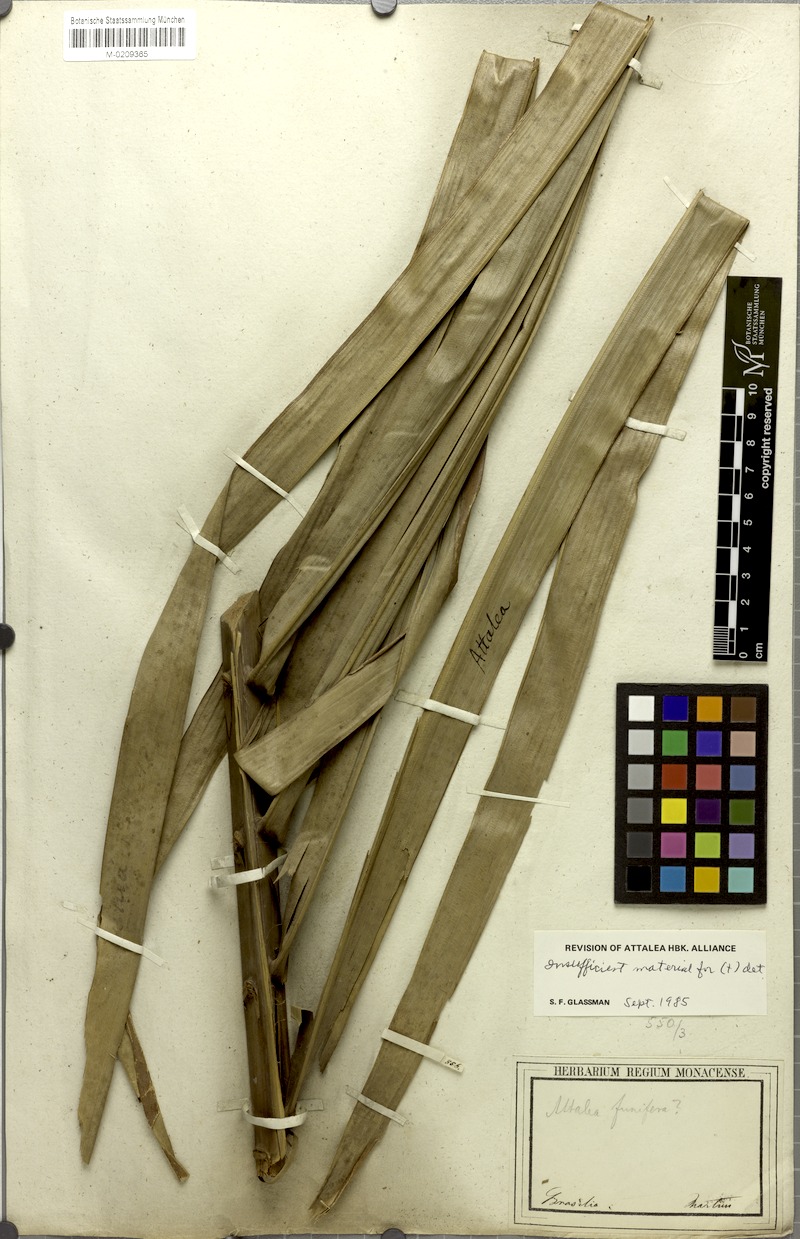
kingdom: Plantae
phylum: Tracheophyta
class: Liliopsida
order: Arecales
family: Arecaceae
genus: Attalea
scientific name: Attalea funifera
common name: Piassava palm
